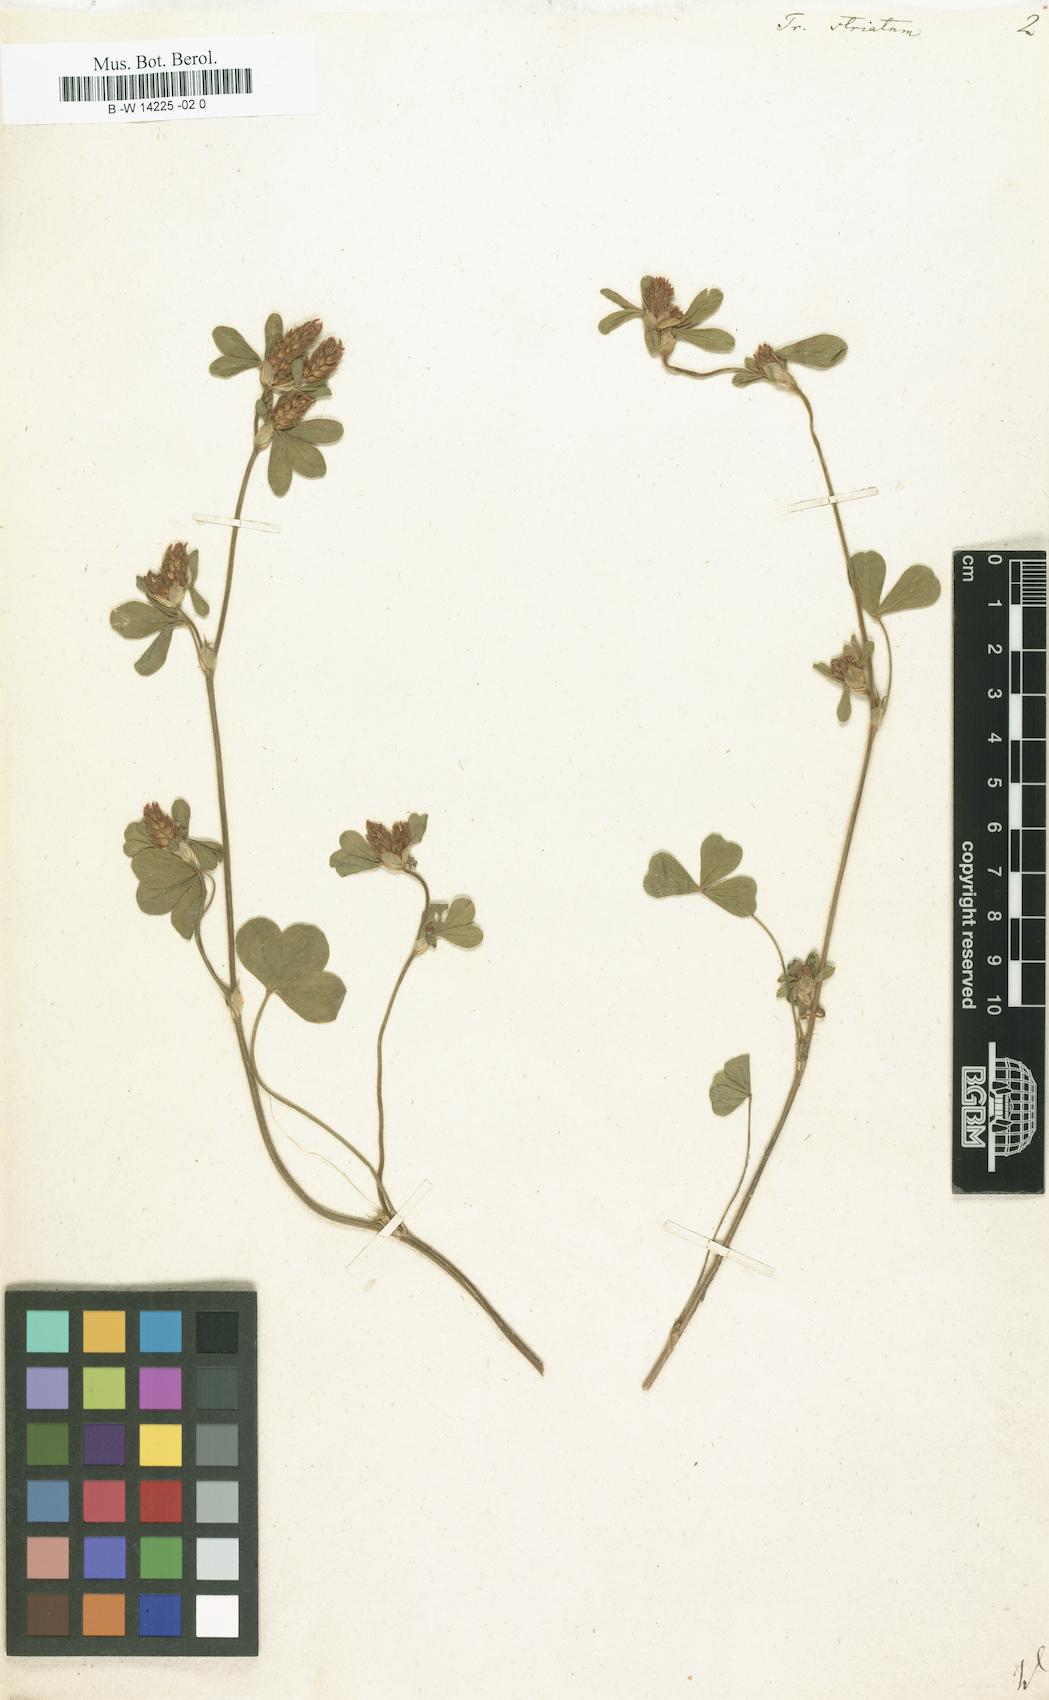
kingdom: Plantae
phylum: Tracheophyta
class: Magnoliopsida
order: Fabales
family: Fabaceae
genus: Trifolium
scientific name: Trifolium striatum
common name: Knotted clover
